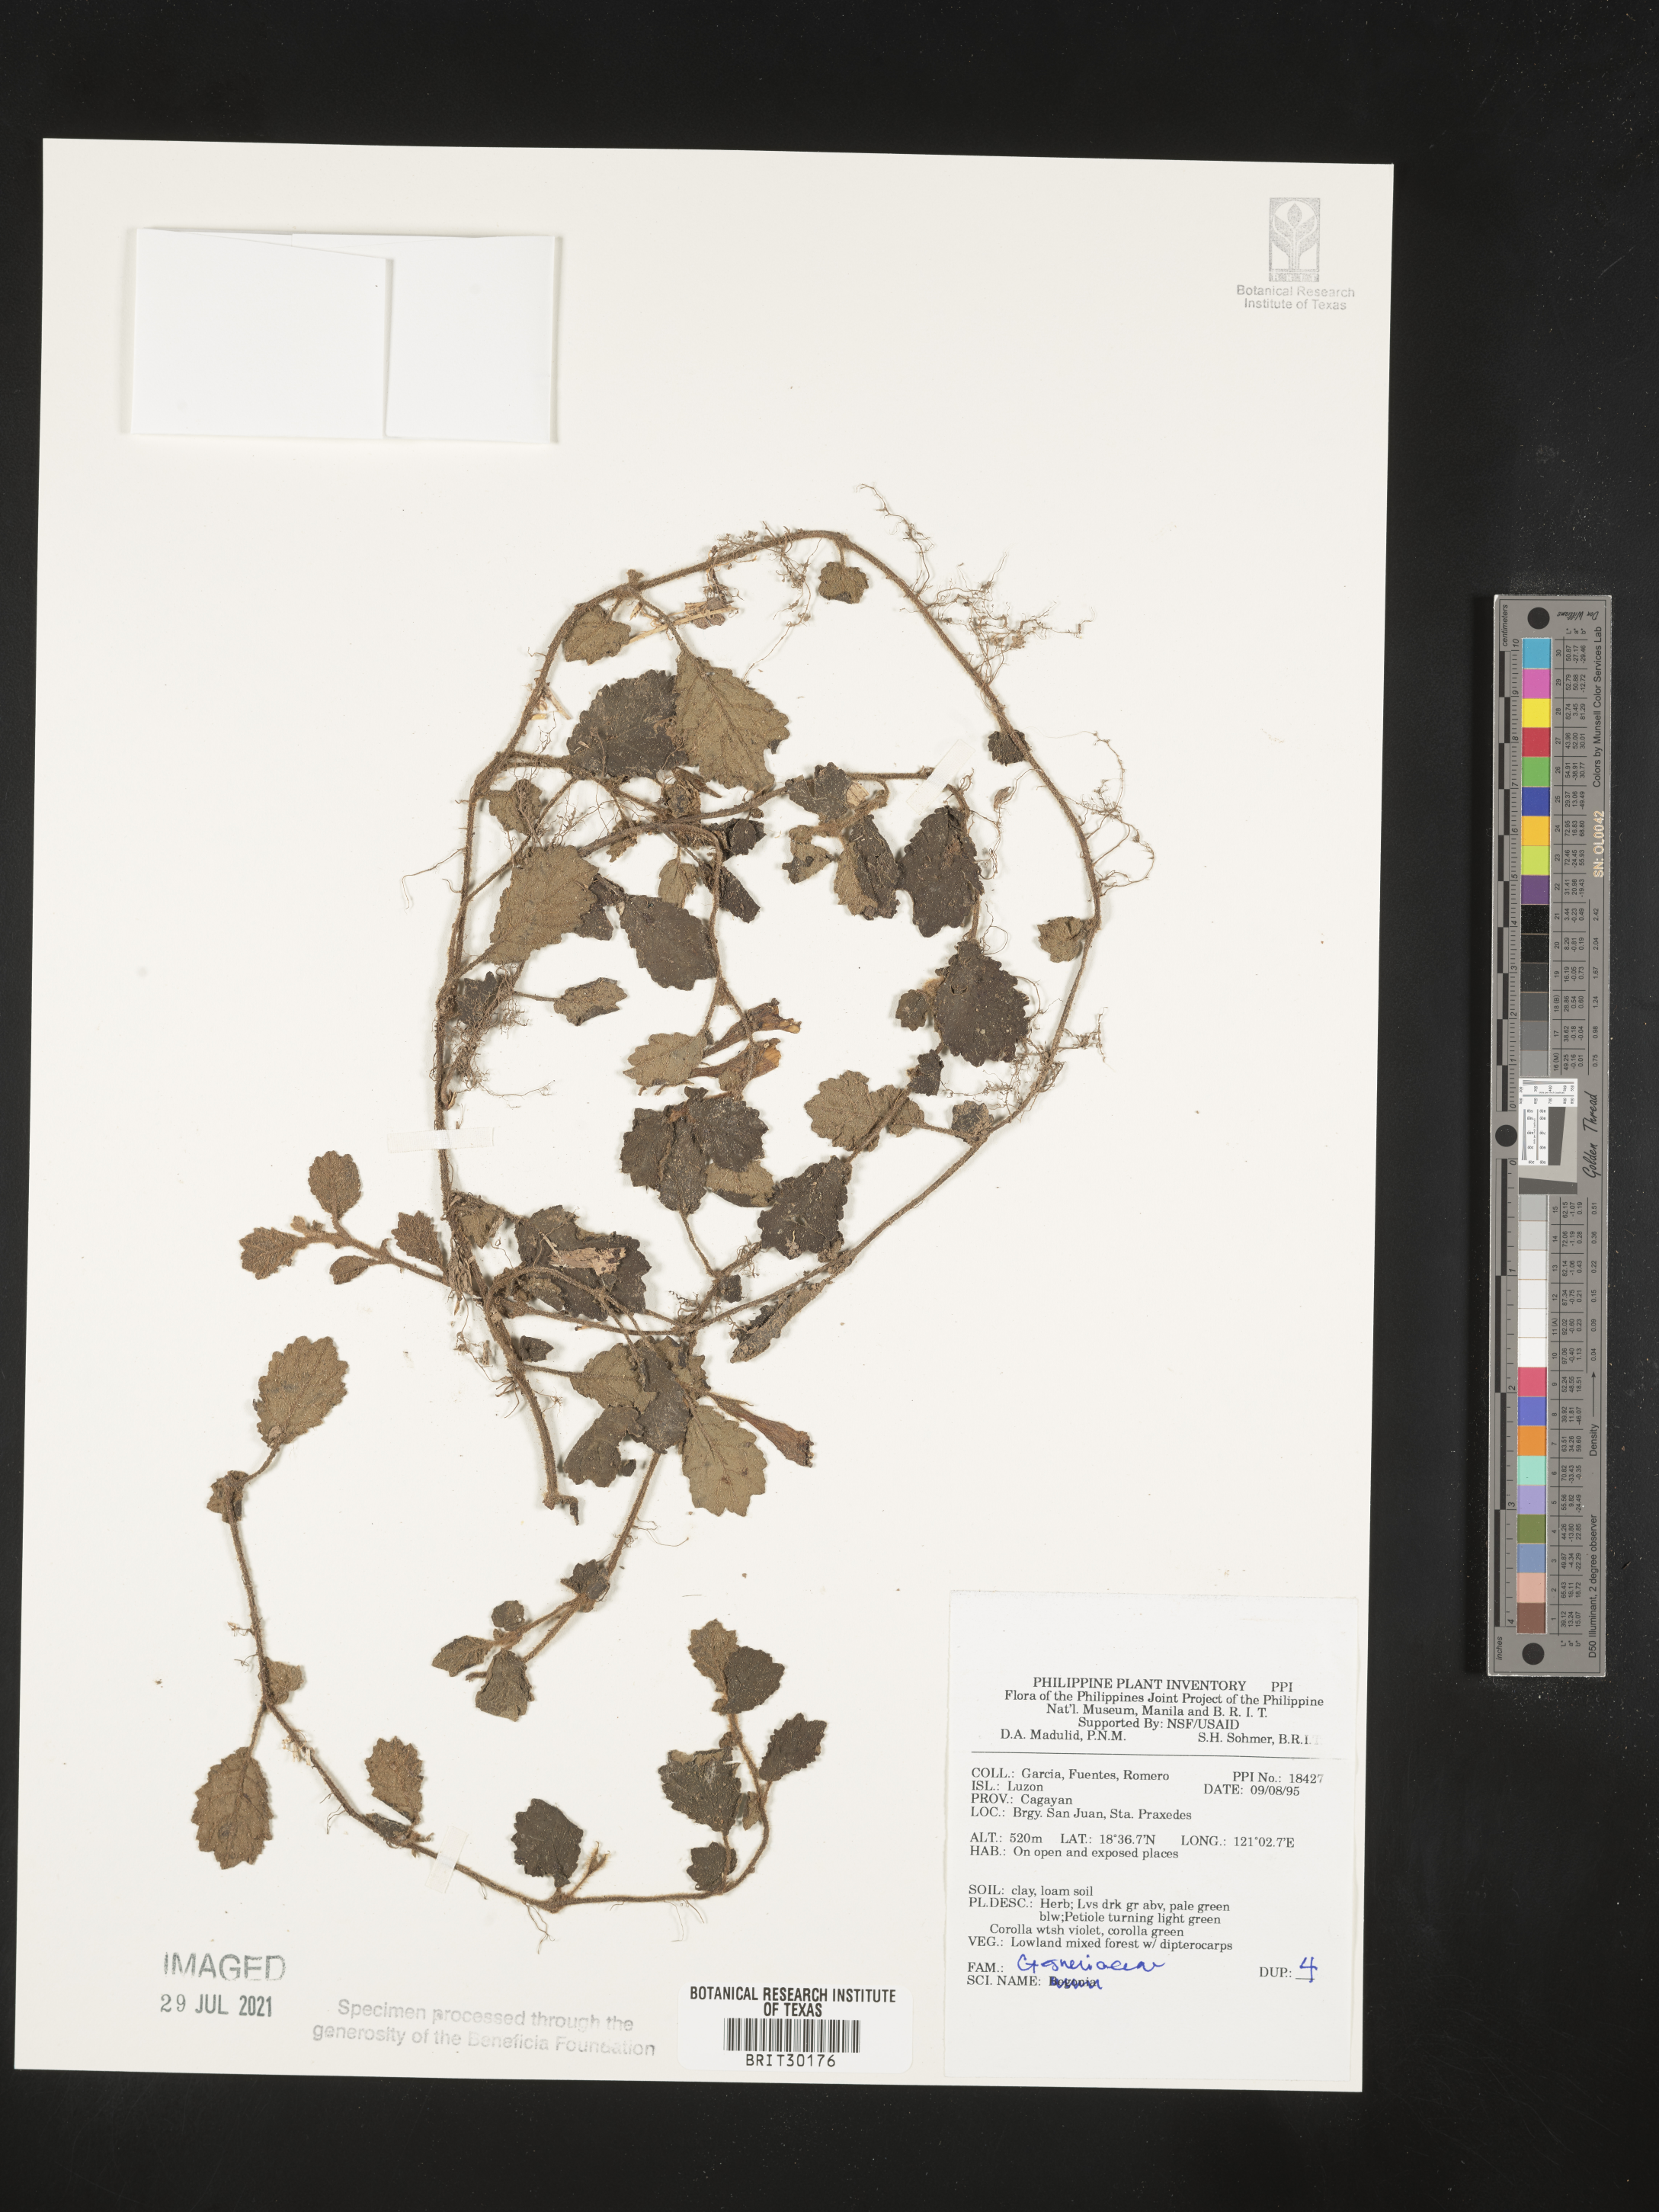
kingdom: Plantae
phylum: Tracheophyta
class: Magnoliopsida
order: Lamiales
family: Gesneriaceae
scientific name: Gesneriaceae
